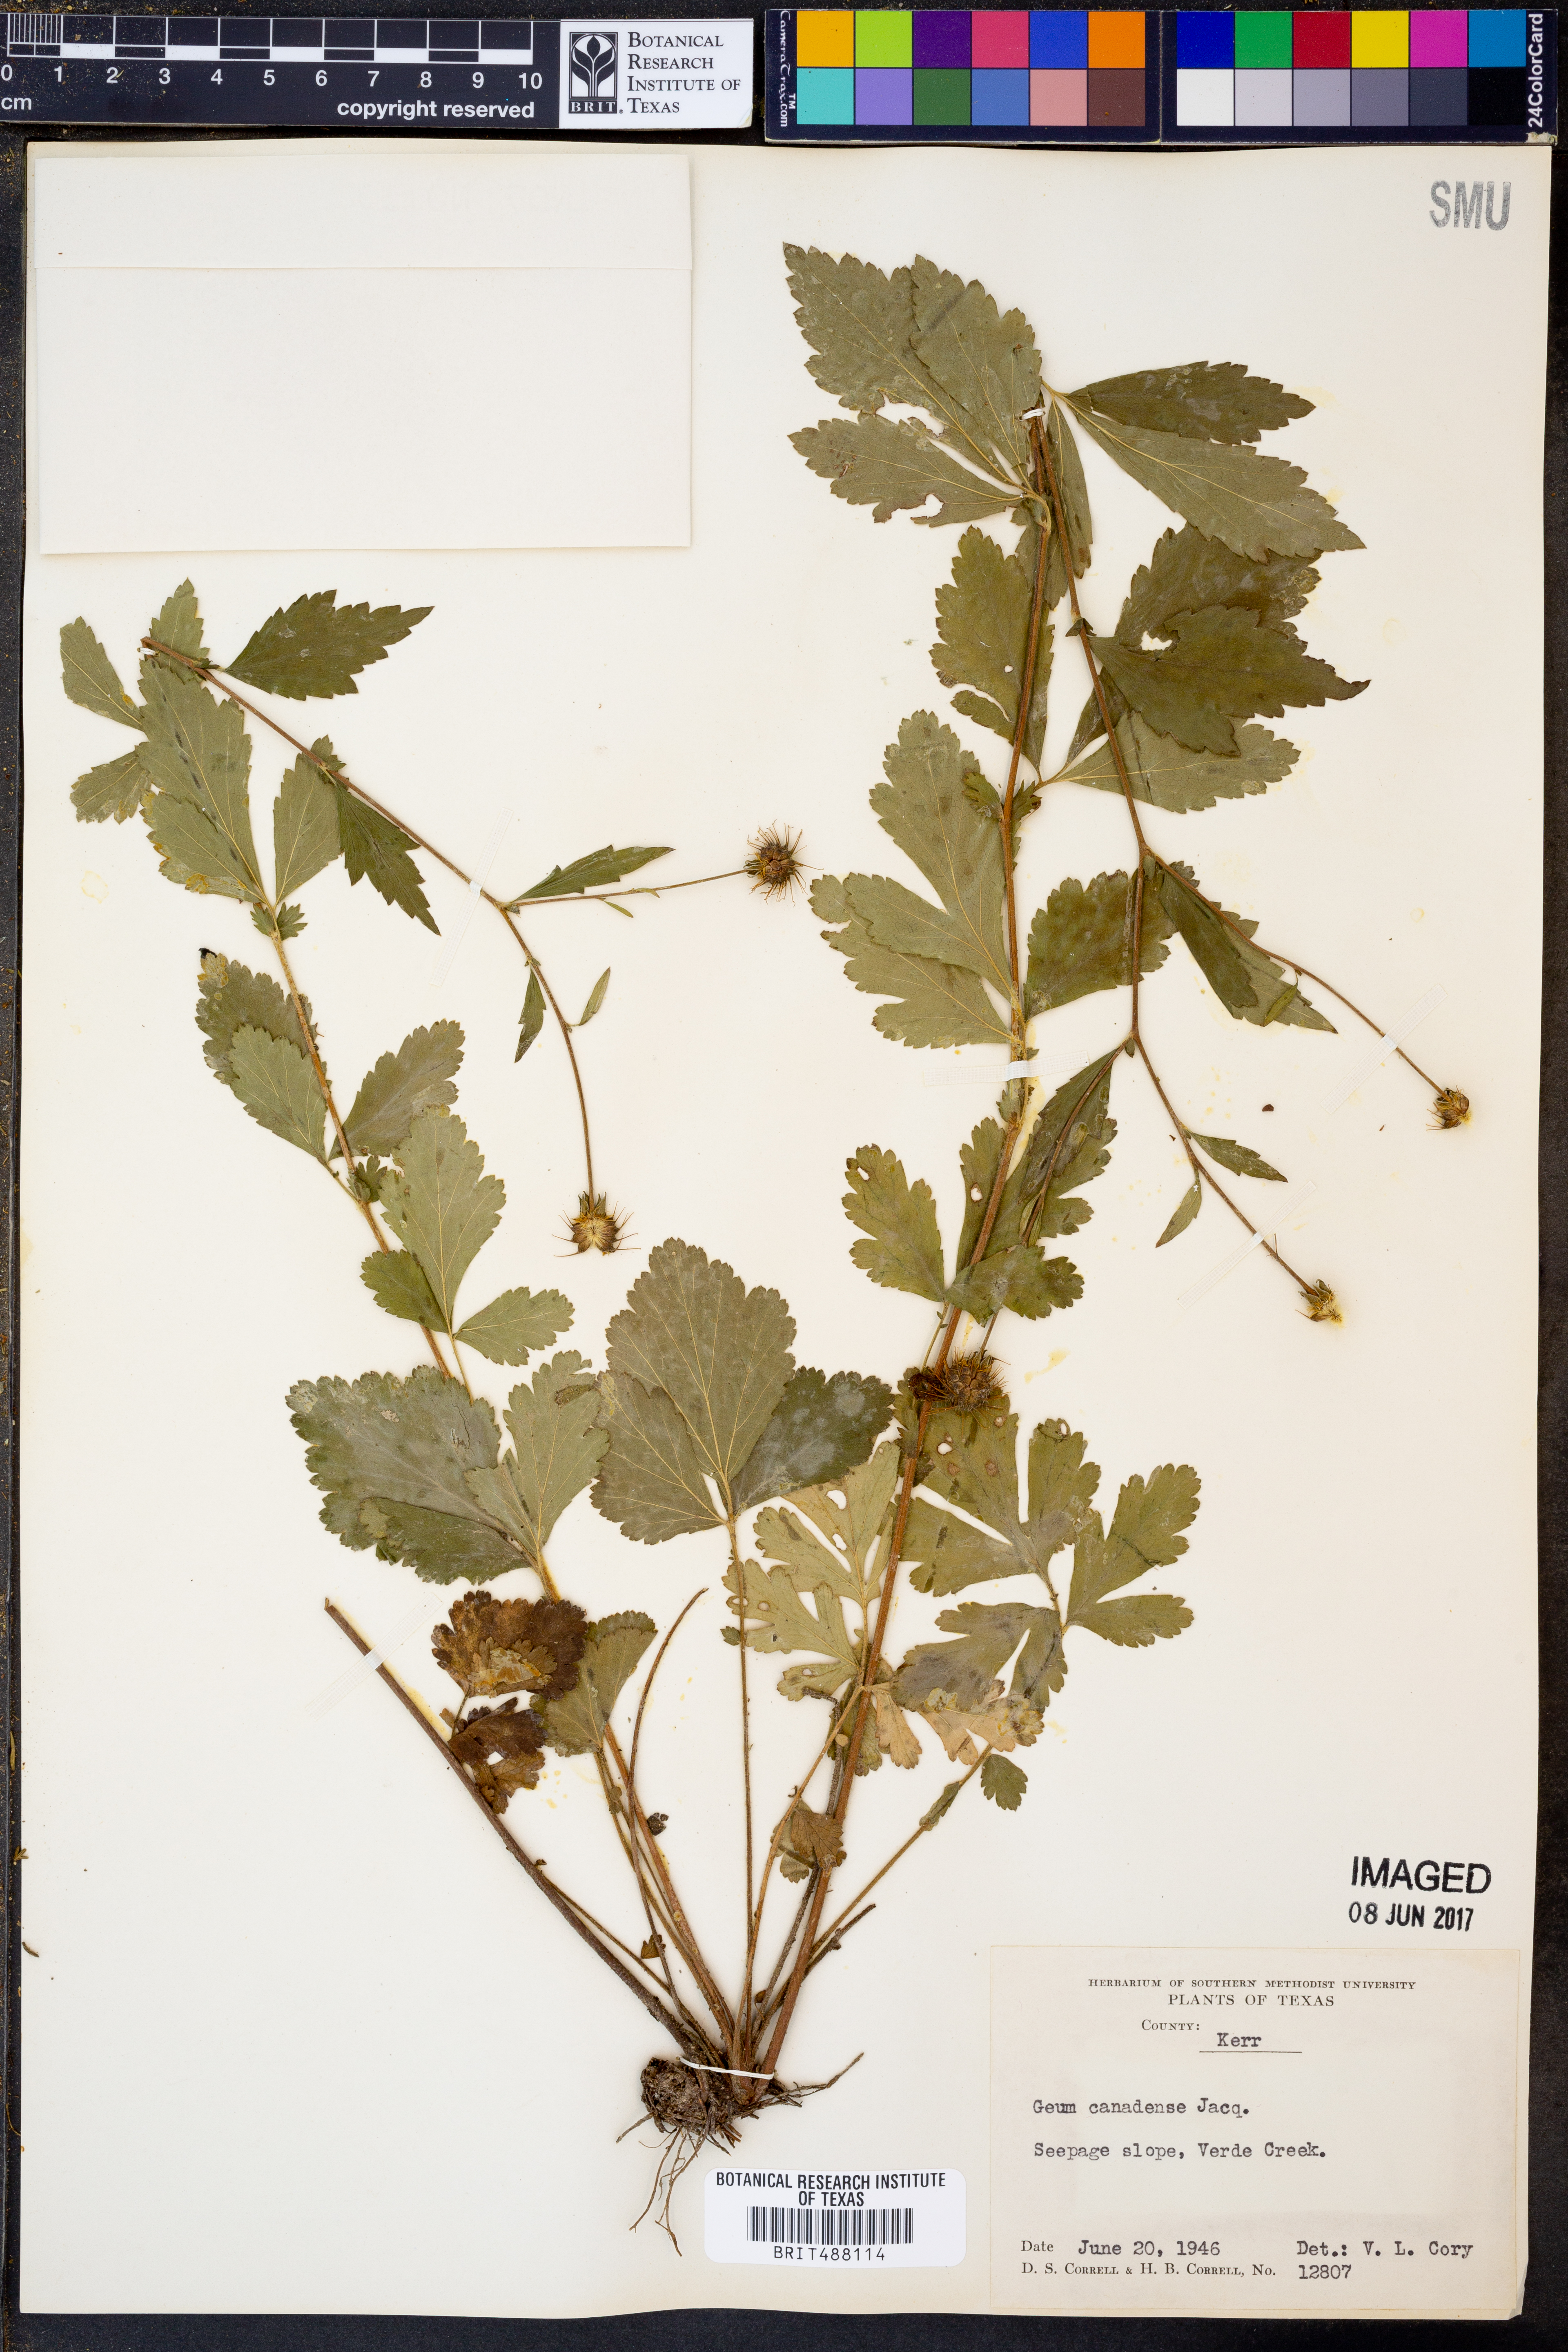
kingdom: Plantae
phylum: Tracheophyta
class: Magnoliopsida
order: Rosales
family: Rosaceae
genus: Geum
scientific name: Geum canadense
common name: White avens
